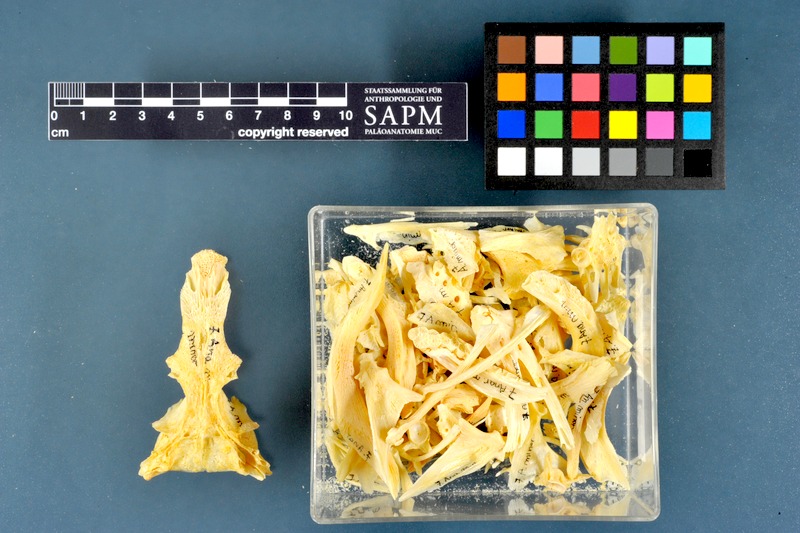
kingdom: Animalia
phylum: Chordata
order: Perciformes
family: Anarhichadidae
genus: Anarhichas
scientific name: Anarhichas minor
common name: Spotted catfish
